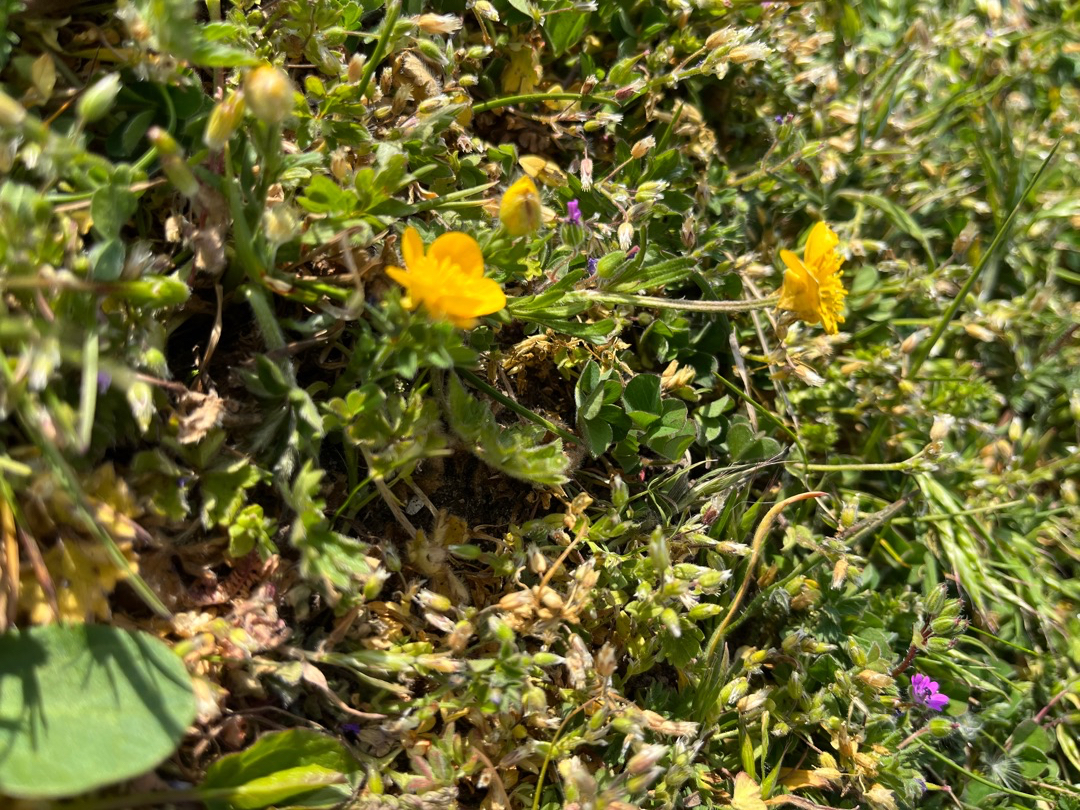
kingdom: Plantae
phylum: Tracheophyta
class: Magnoliopsida
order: Ranunculales
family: Ranunculaceae
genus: Ranunculus
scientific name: Ranunculus bulbosus
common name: Knold-ranunkel
